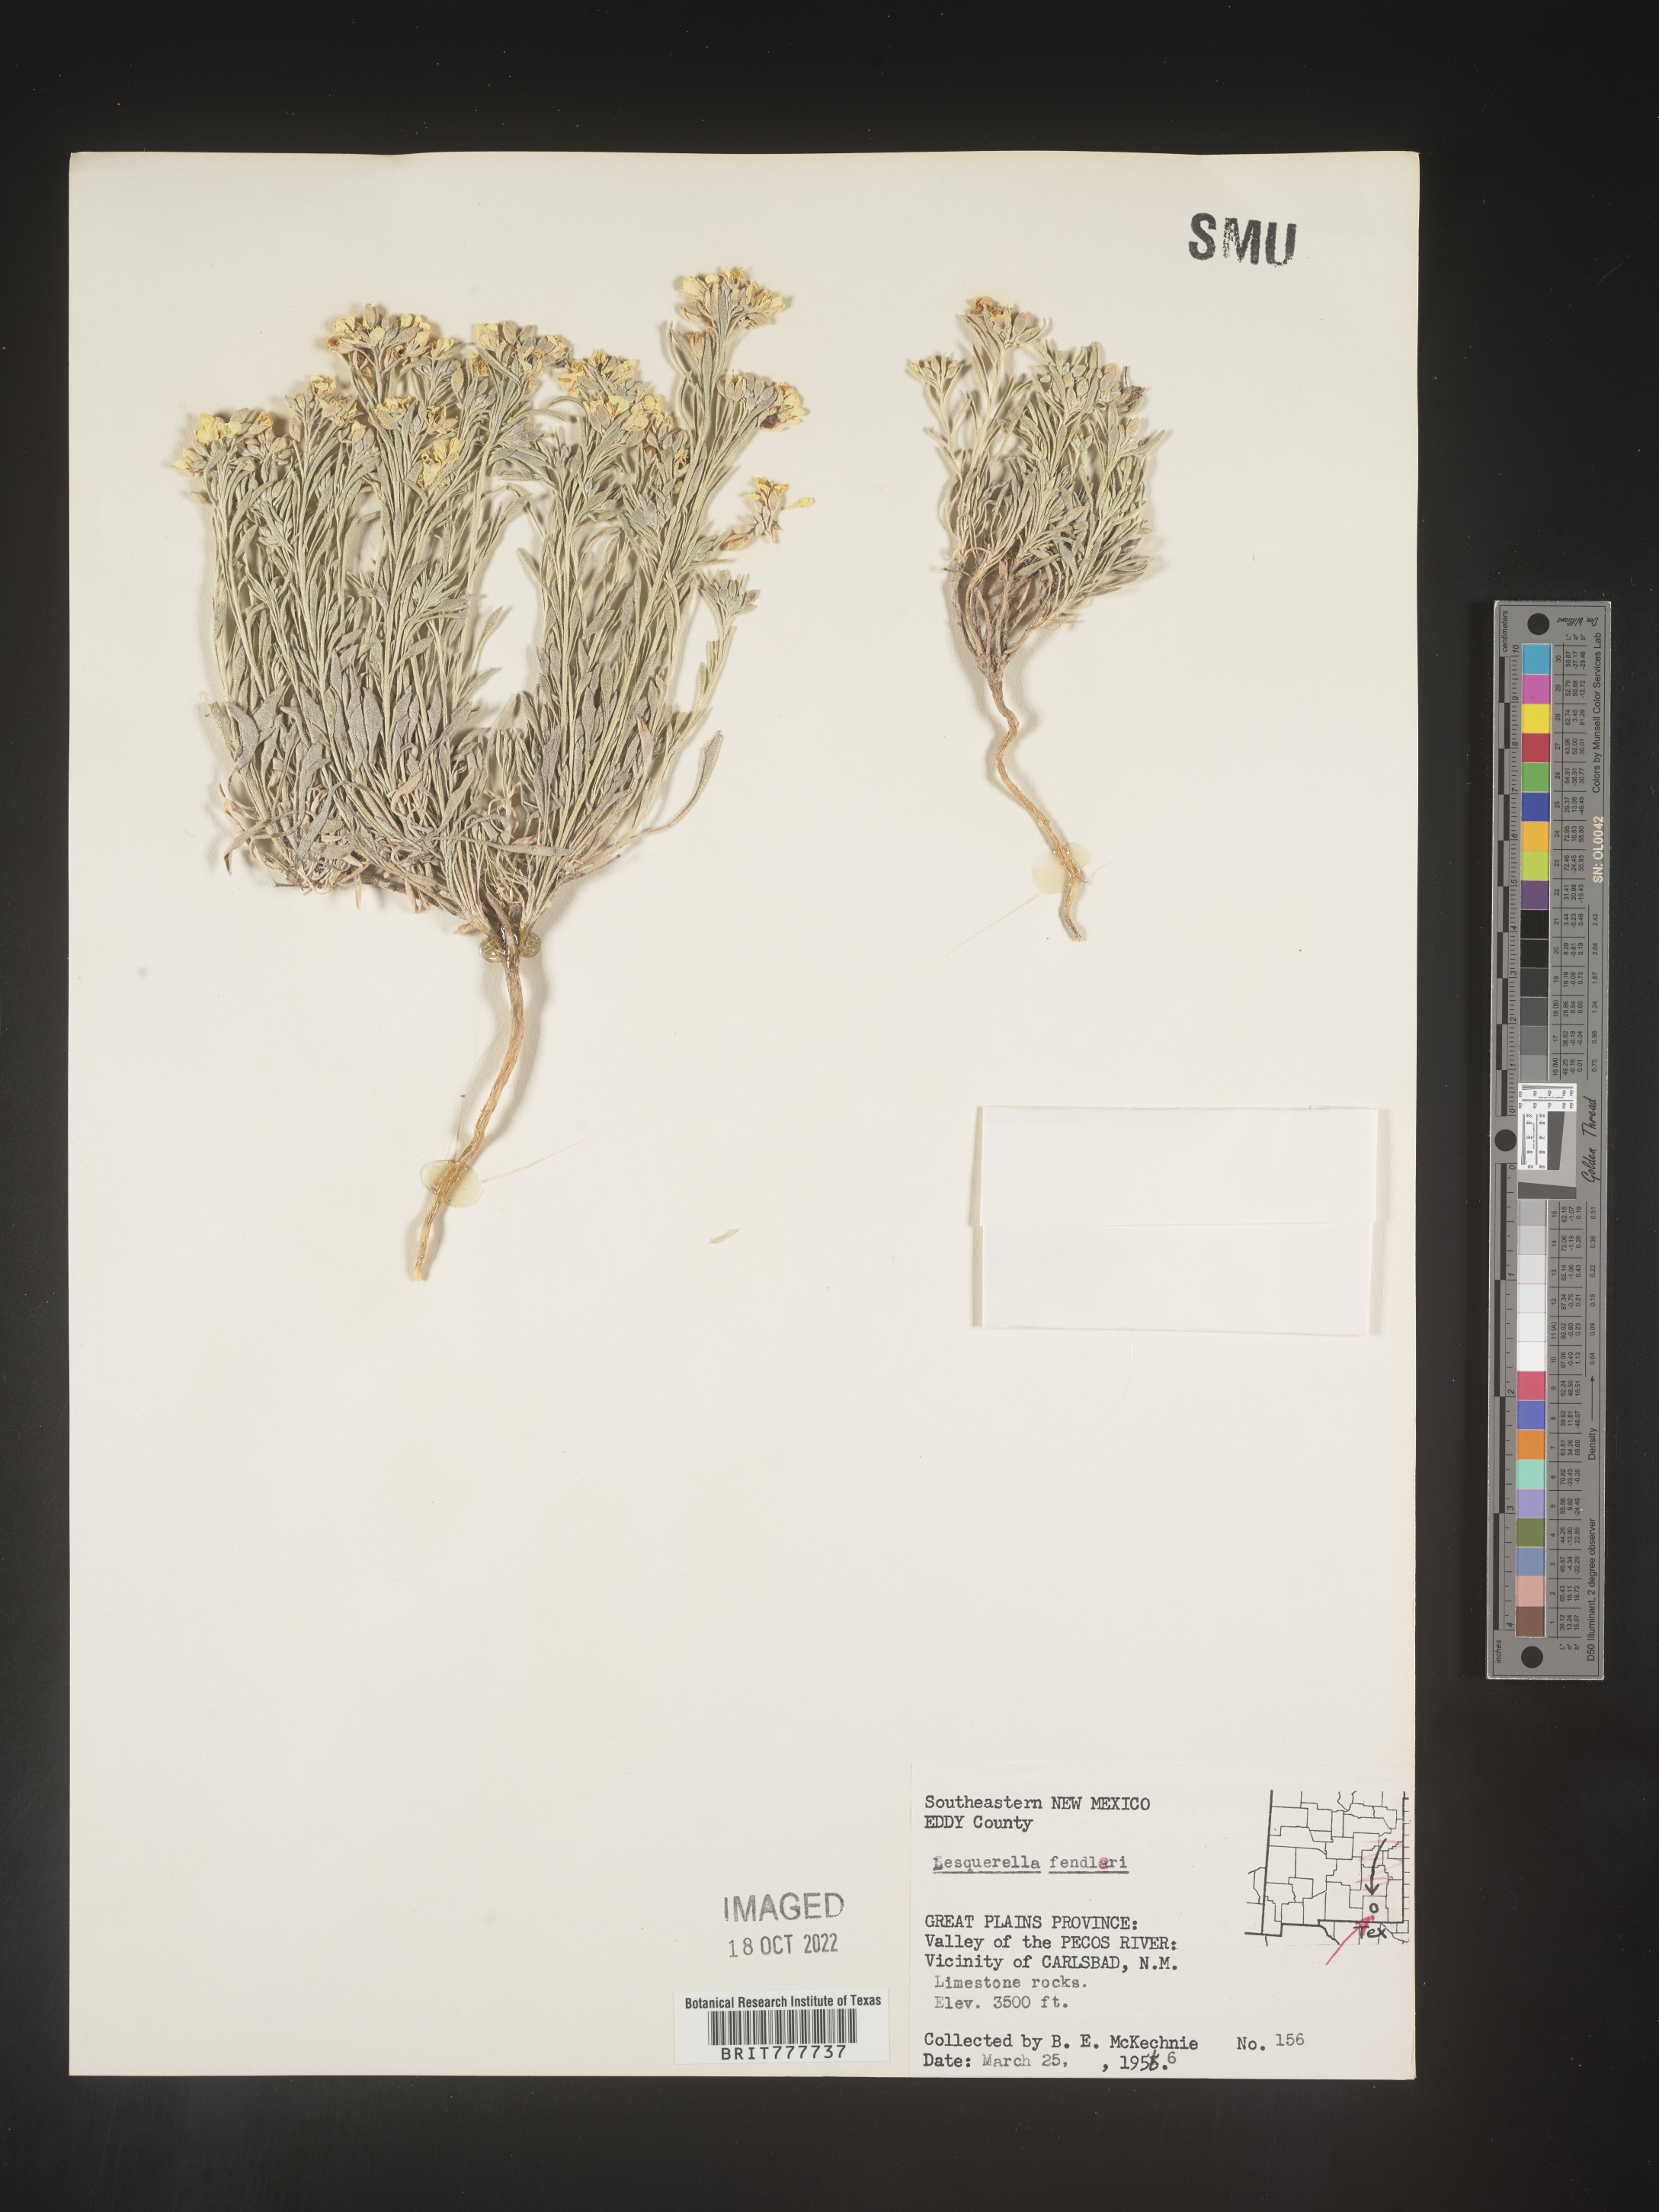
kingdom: Plantae
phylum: Tracheophyta
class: Magnoliopsida
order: Brassicales
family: Brassicaceae
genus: Physaria
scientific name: Physaria fendleri
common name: Fendler's bladderpod
